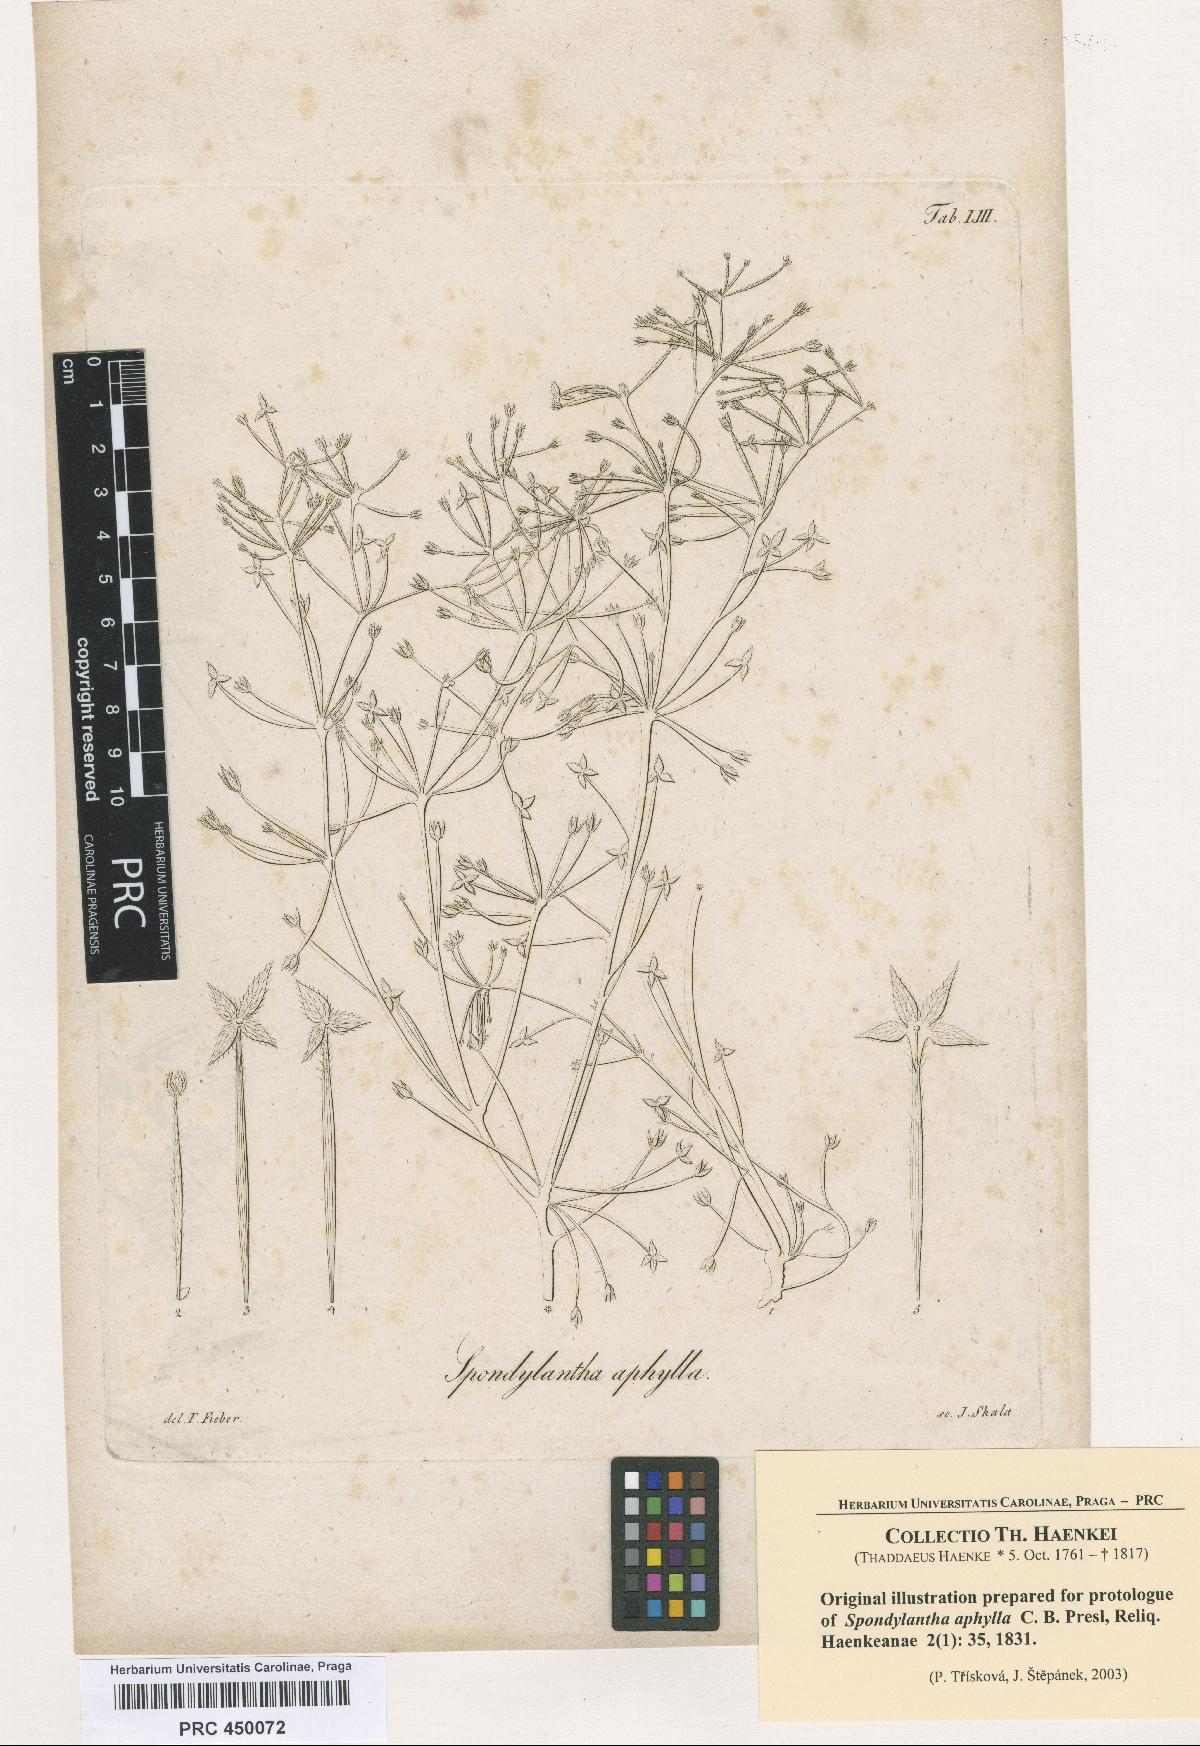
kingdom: Plantae
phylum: Tracheophyta
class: Magnoliopsida
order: Vitales
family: Vitaceae
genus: Cissus
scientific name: Cissus verticillata
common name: Princess vine
